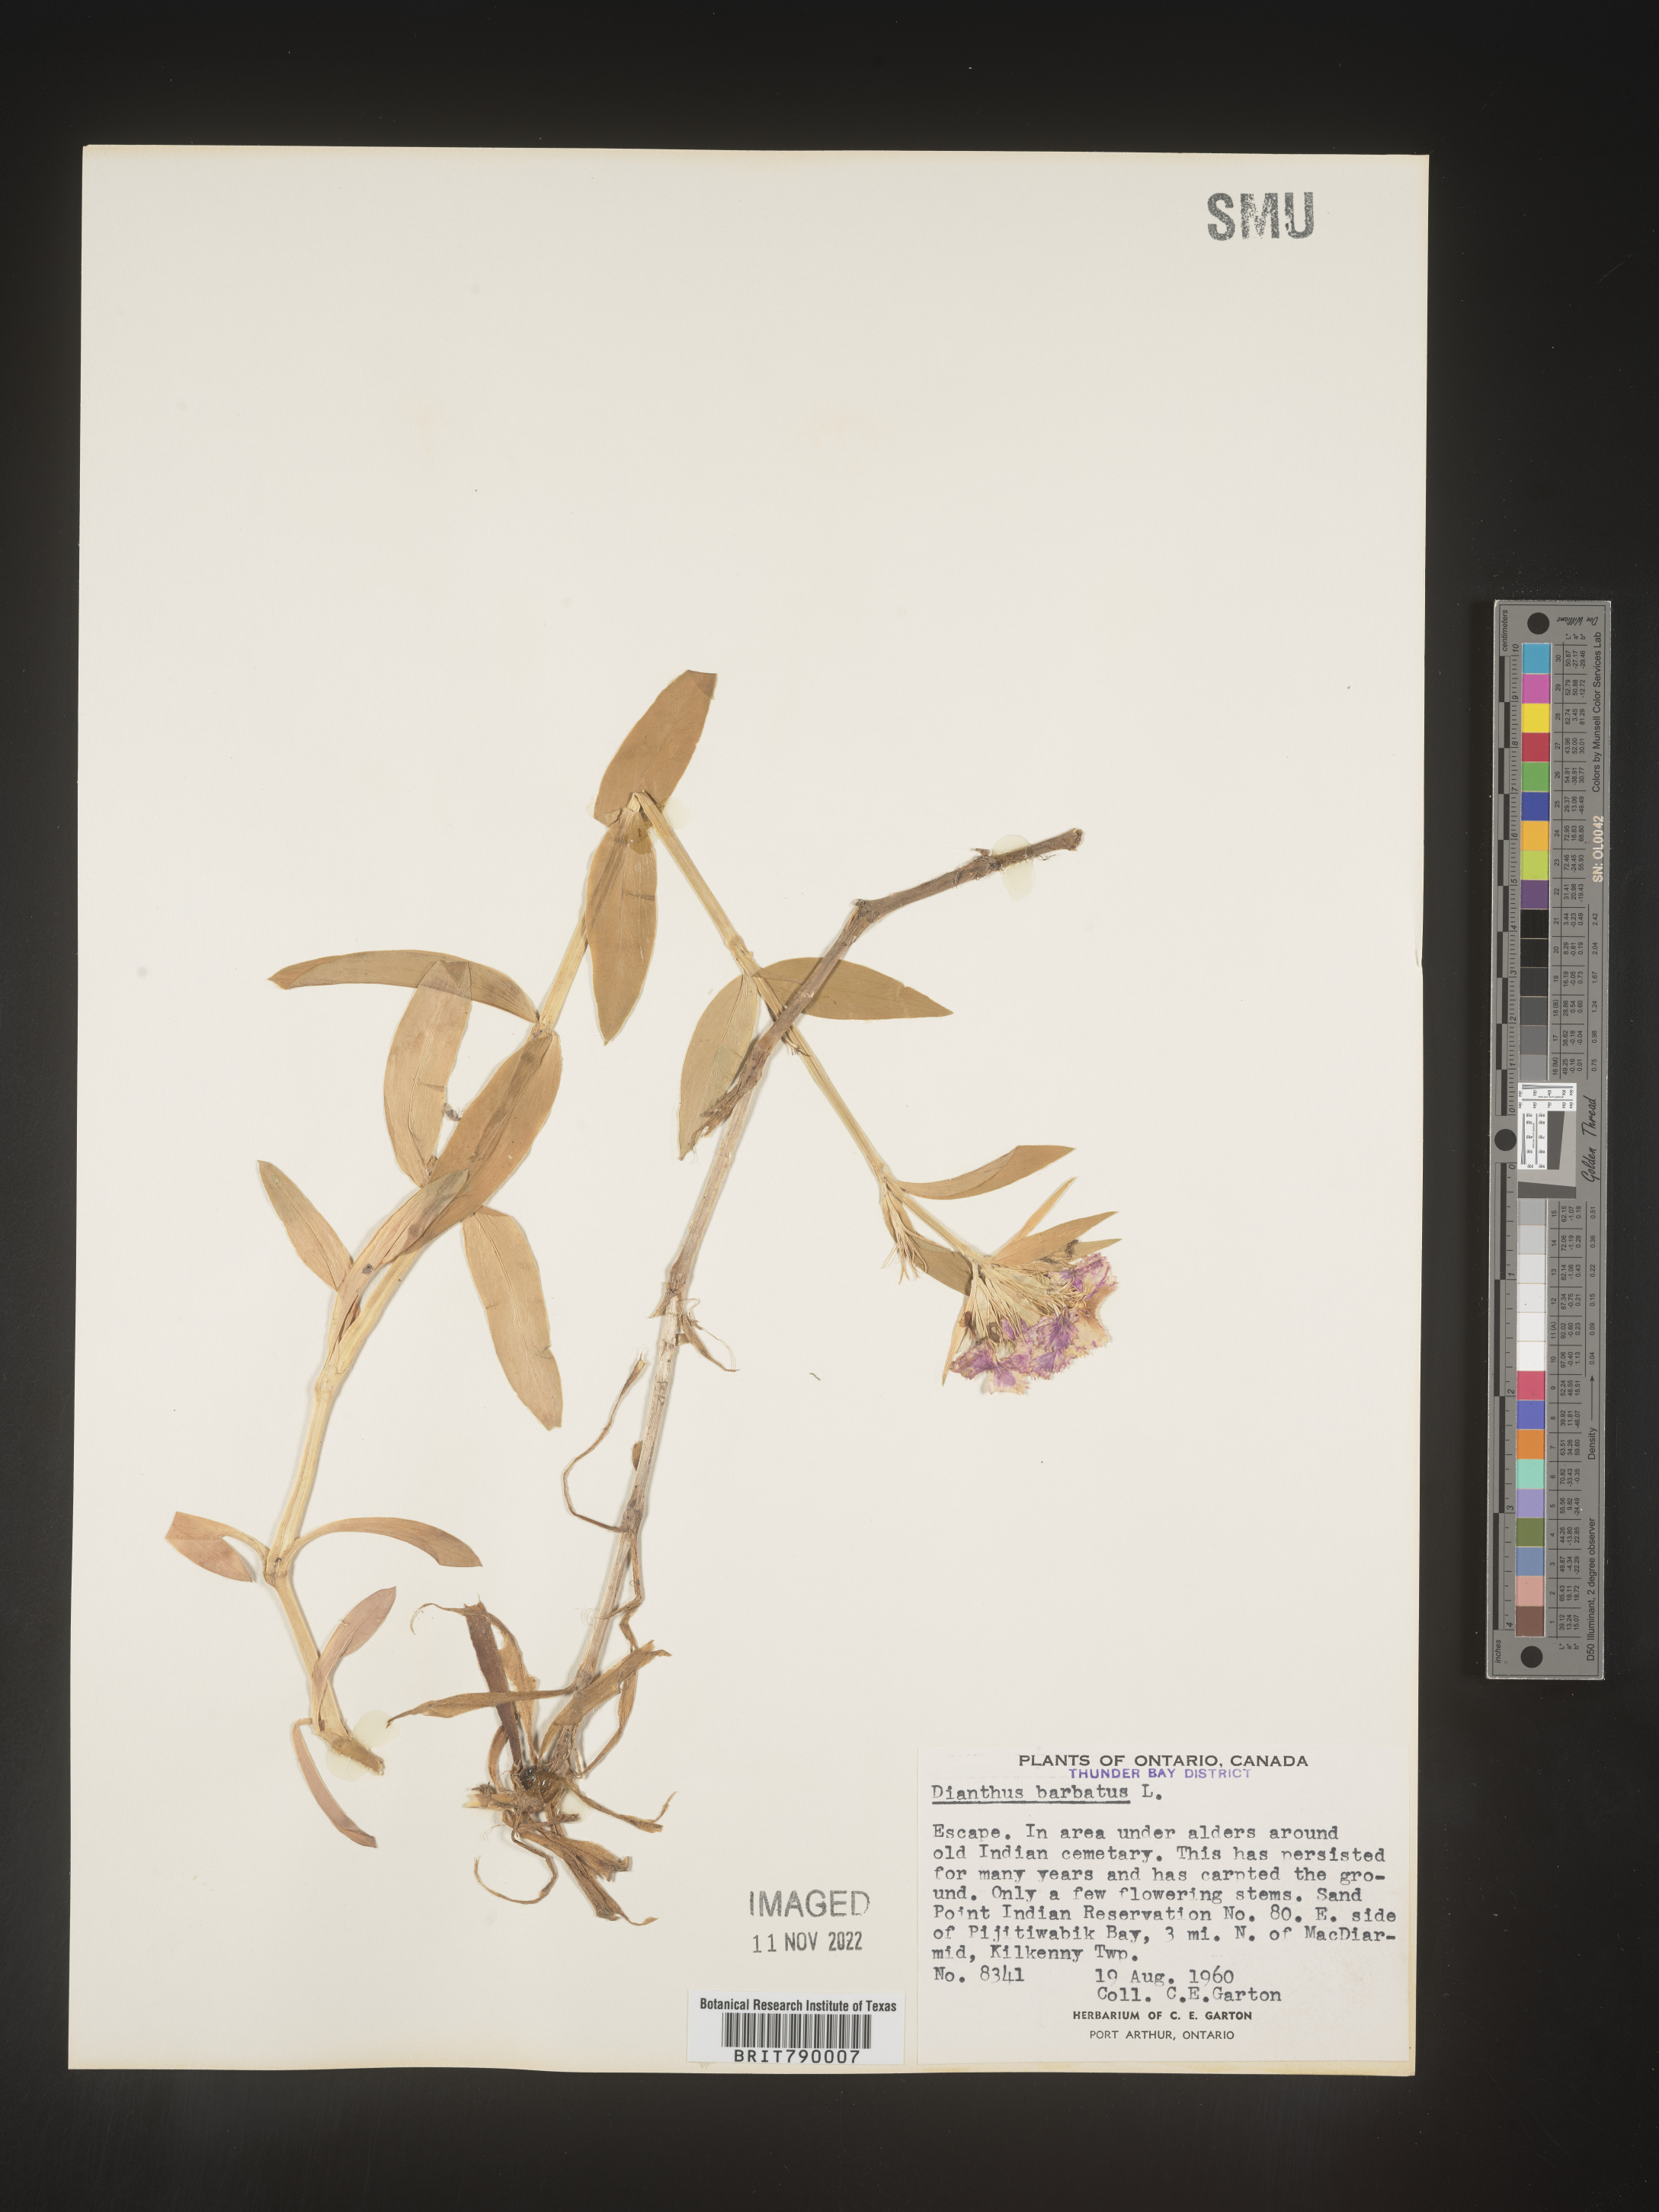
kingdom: Plantae
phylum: Tracheophyta
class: Magnoliopsida
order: Caryophyllales
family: Caryophyllaceae
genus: Dianthus
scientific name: Dianthus
